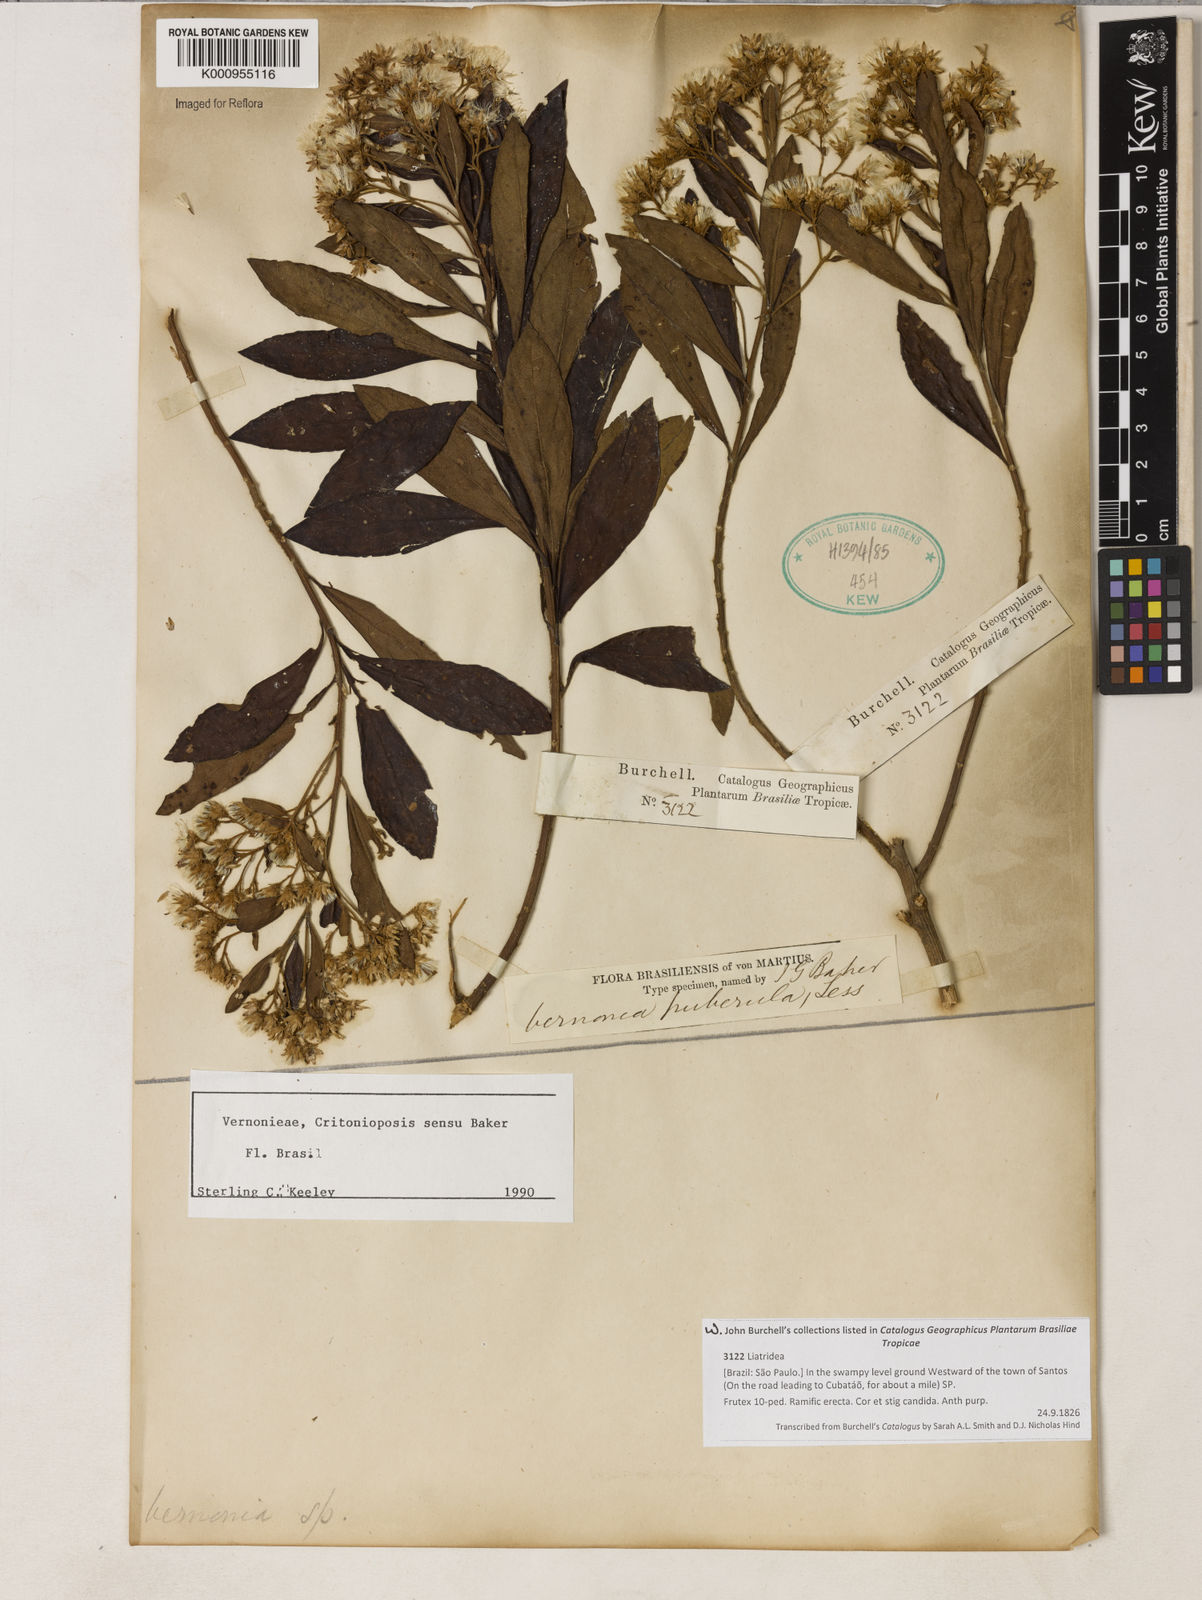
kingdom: Plantae
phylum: Tracheophyta
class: Magnoliopsida
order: Asterales
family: Asteraceae
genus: Vernonanthura
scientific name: Vernonanthura puberula
